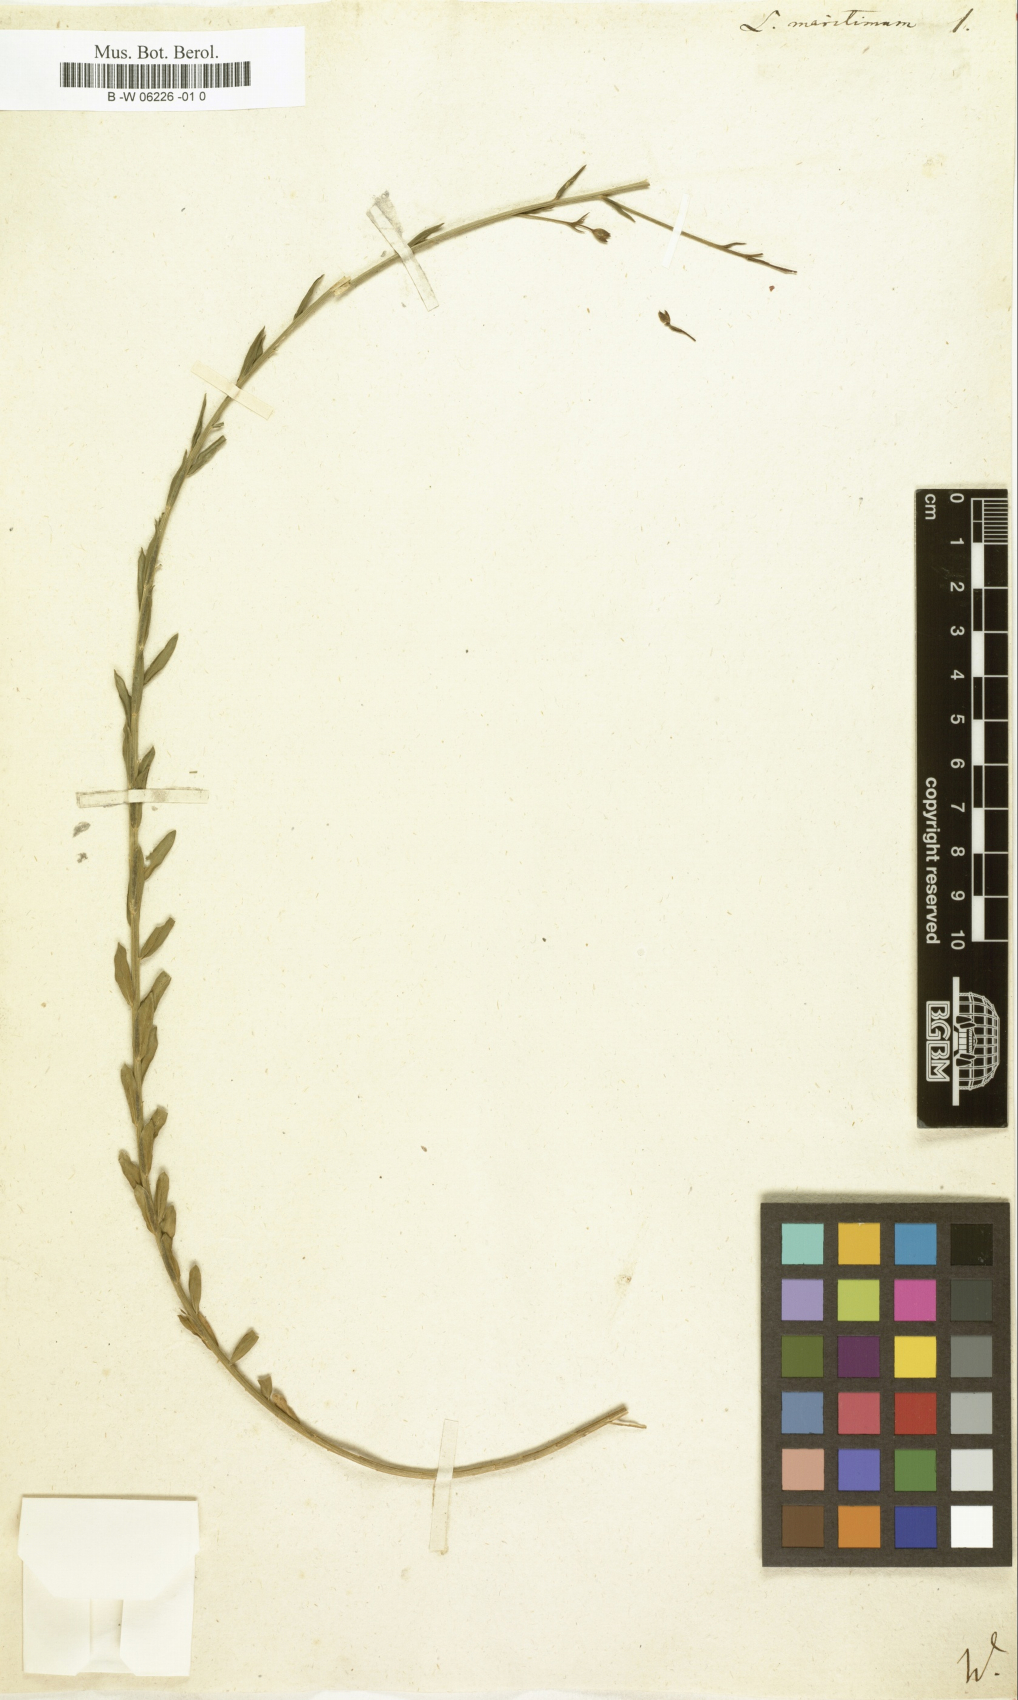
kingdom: Plantae
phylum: Tracheophyta
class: Magnoliopsida
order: Malpighiales
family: Linaceae
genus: Linum
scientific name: Linum maritimum
